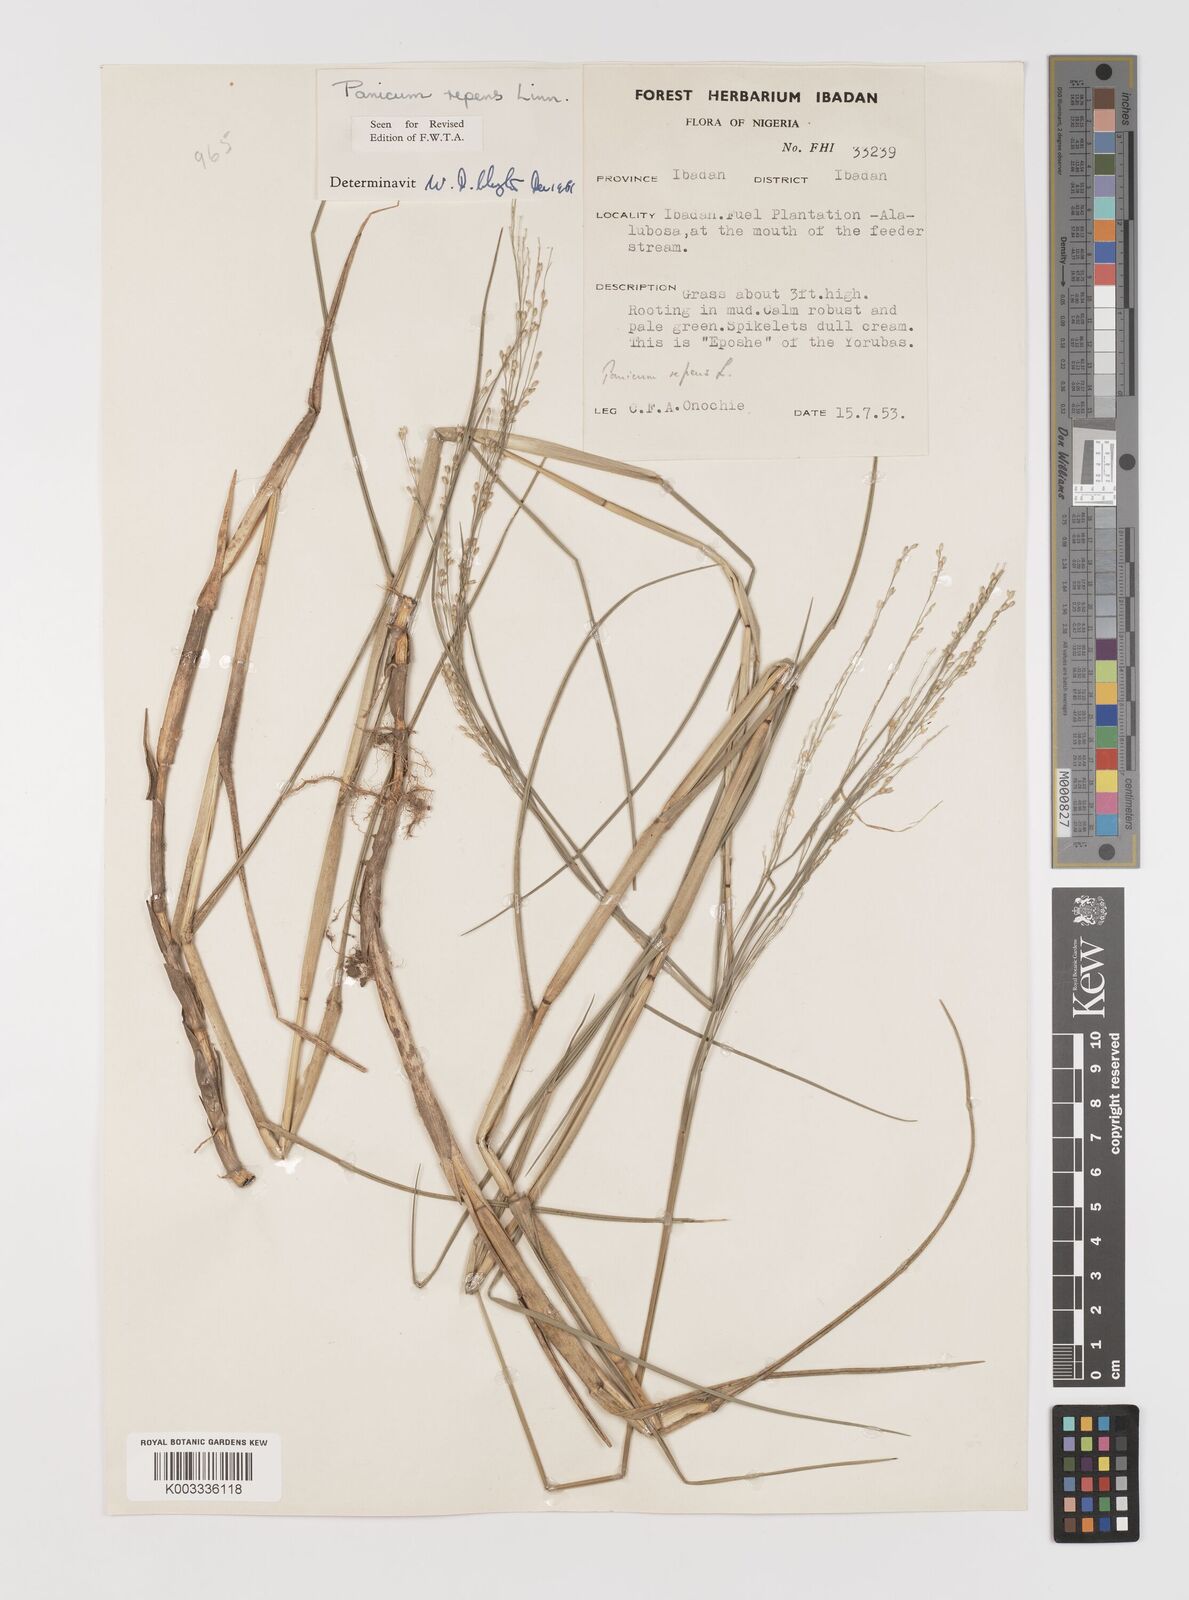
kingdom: Plantae
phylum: Tracheophyta
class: Liliopsida
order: Poales
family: Poaceae
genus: Panicum
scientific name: Panicum repens
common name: Torpedo grass
